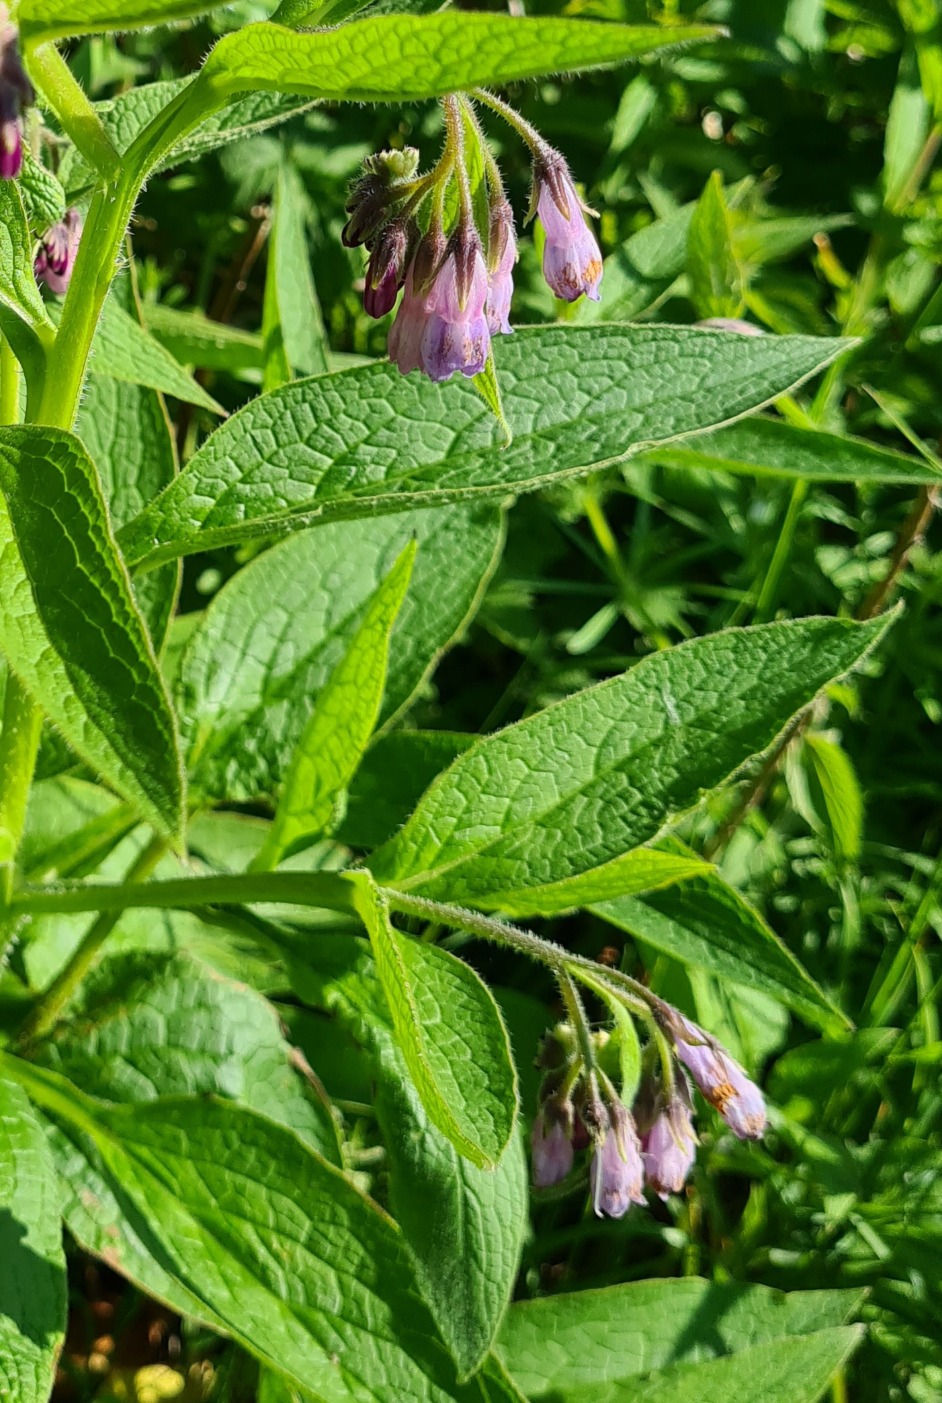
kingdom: Plantae
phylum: Tracheophyta
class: Magnoliopsida
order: Boraginales
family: Boraginaceae
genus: Symphytum
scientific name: Symphytum uplandicum
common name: Foder-kulsukker
